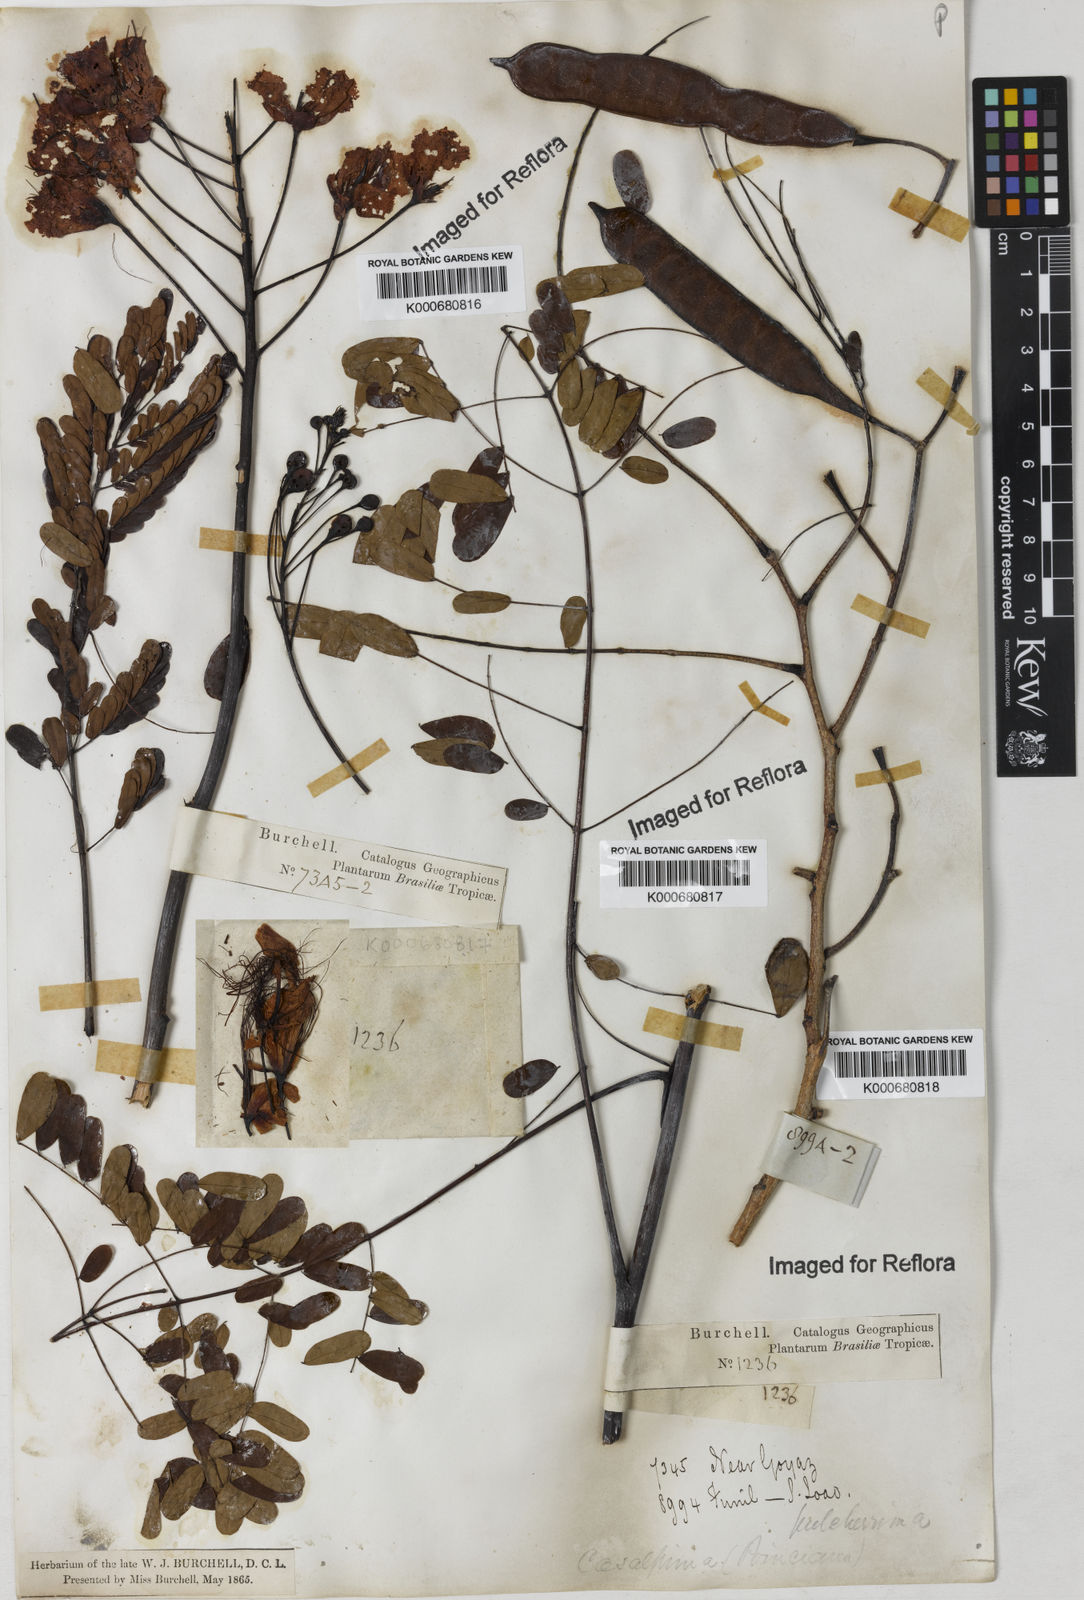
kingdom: Plantae
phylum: Tracheophyta
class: Magnoliopsida
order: Fabales
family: Fabaceae
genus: Caesalpinia
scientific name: Caesalpinia pulcherrima
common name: Pride-of-barbados
